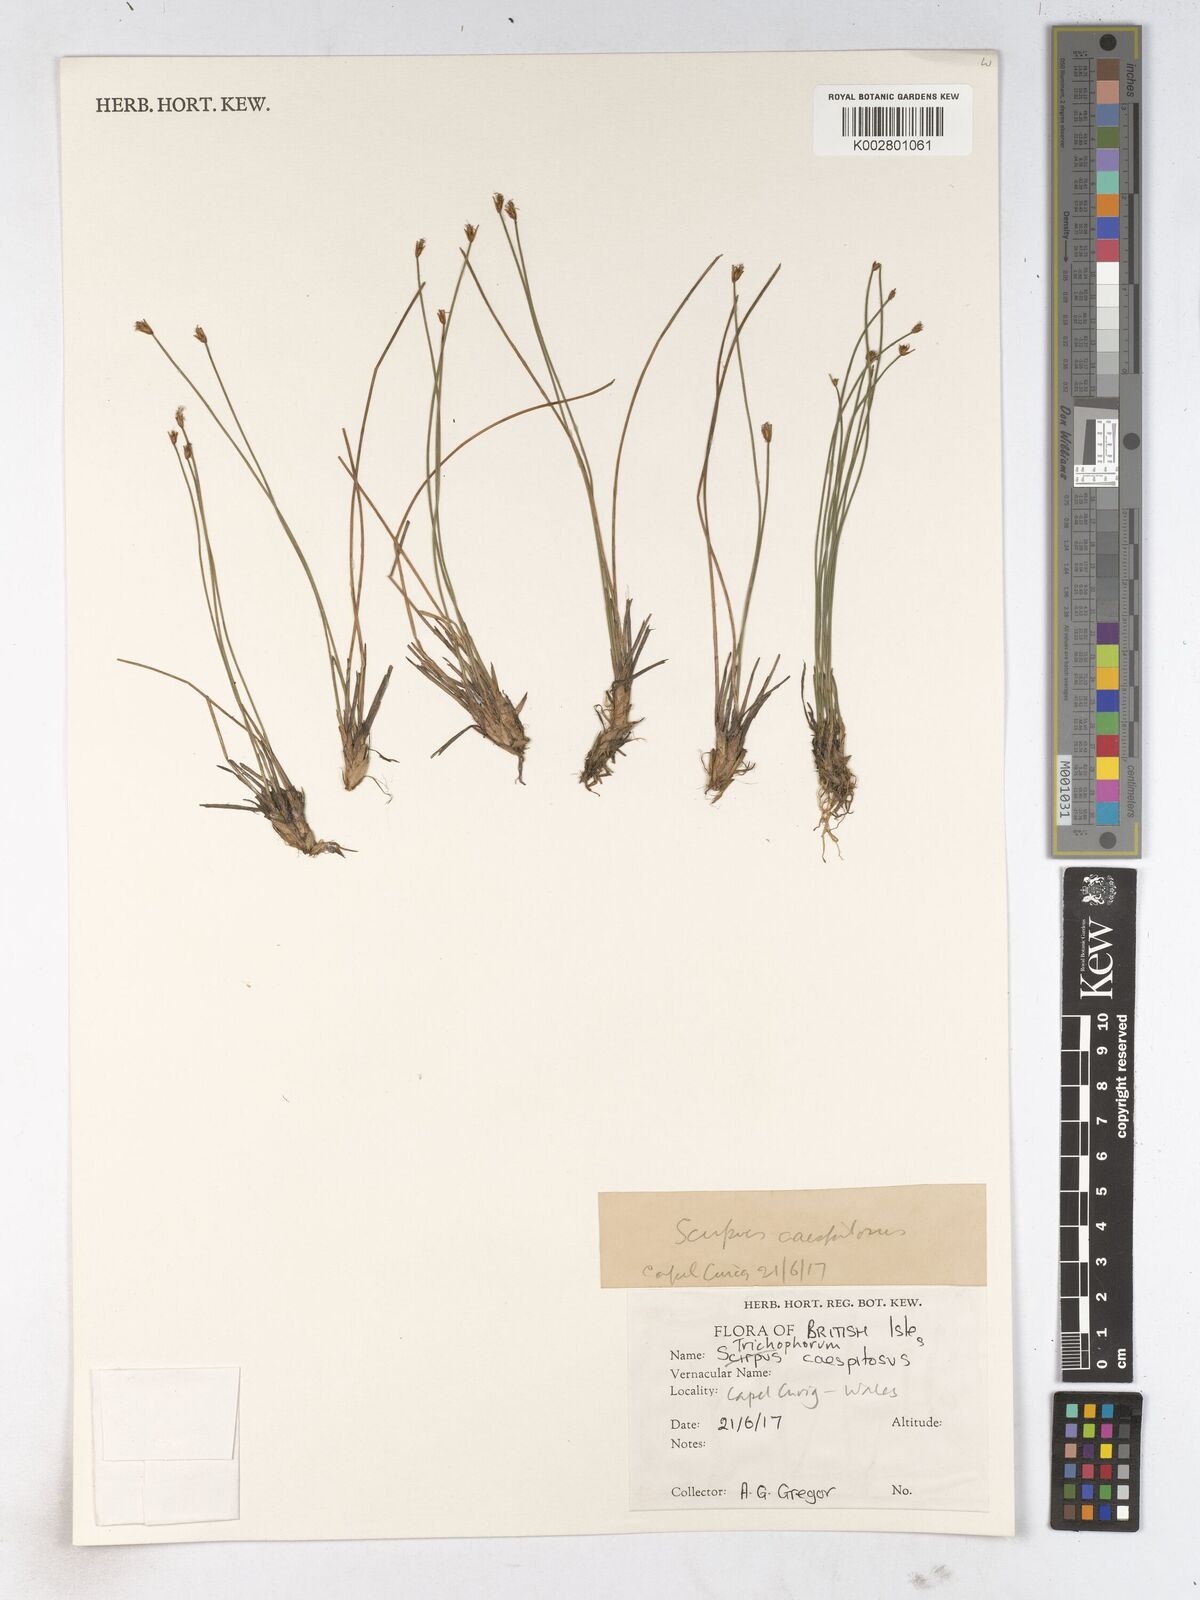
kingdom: Plantae
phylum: Tracheophyta
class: Liliopsida
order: Poales
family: Cyperaceae
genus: Trichophorum
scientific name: Trichophorum cespitosum
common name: Cespitose bulrush
